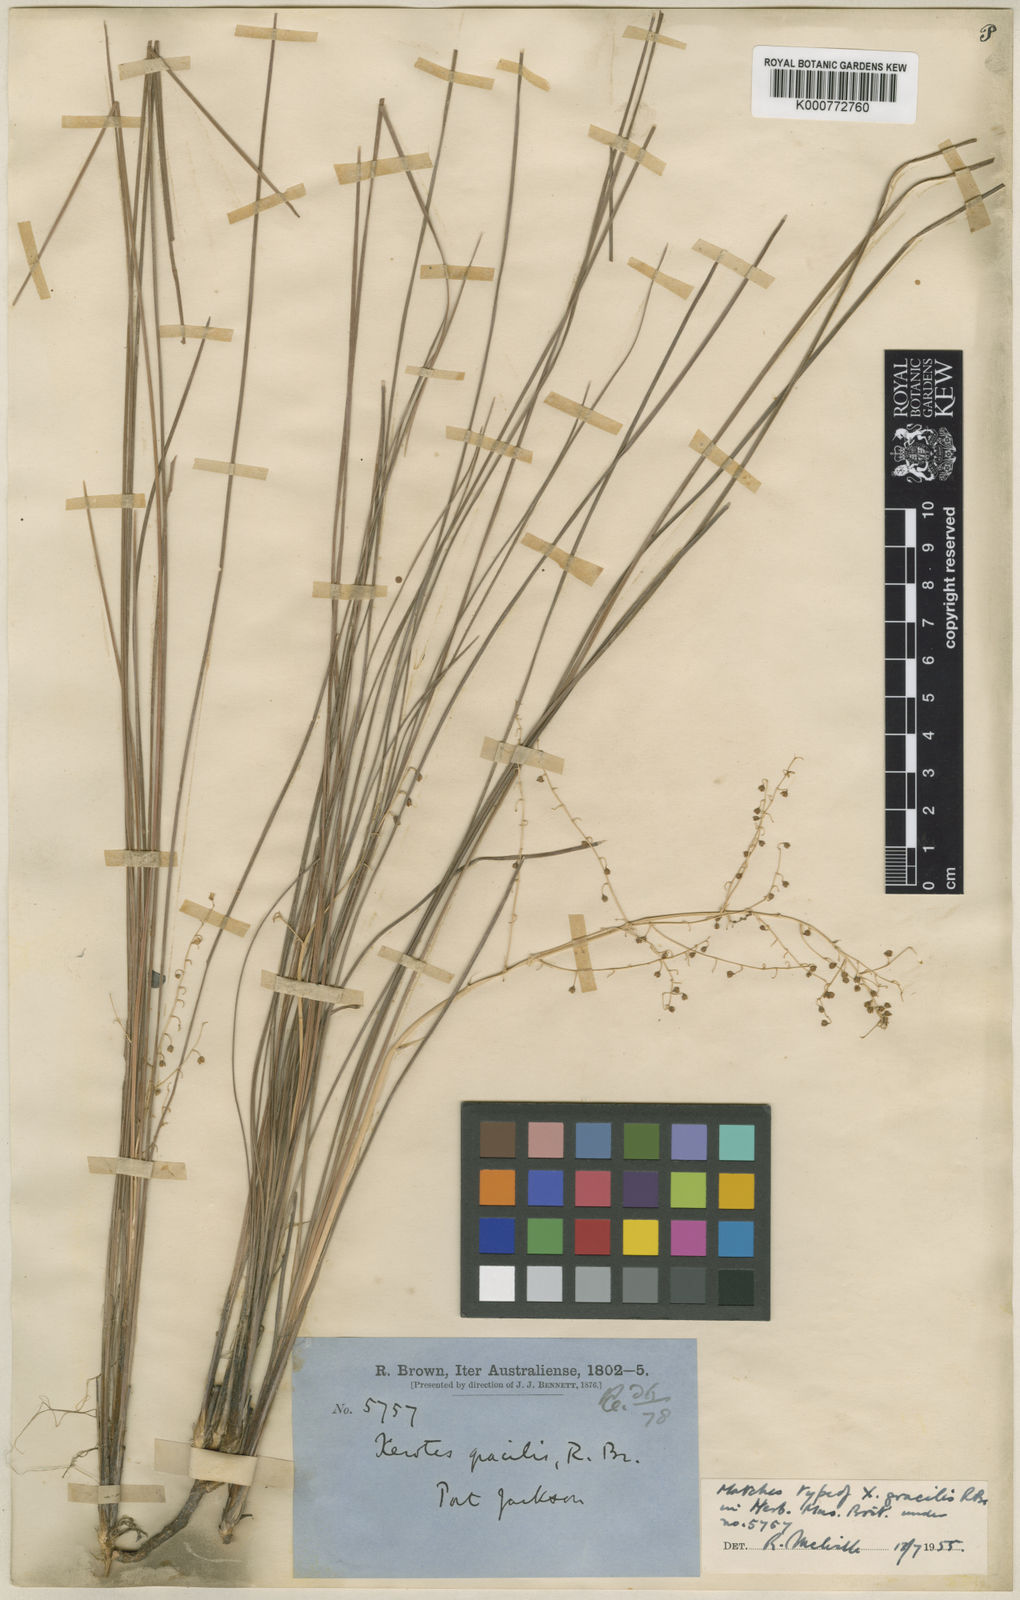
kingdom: Plantae
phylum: Tracheophyta
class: Liliopsida
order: Asparagales
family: Asparagaceae
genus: Lomandra
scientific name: Lomandra gracilis
